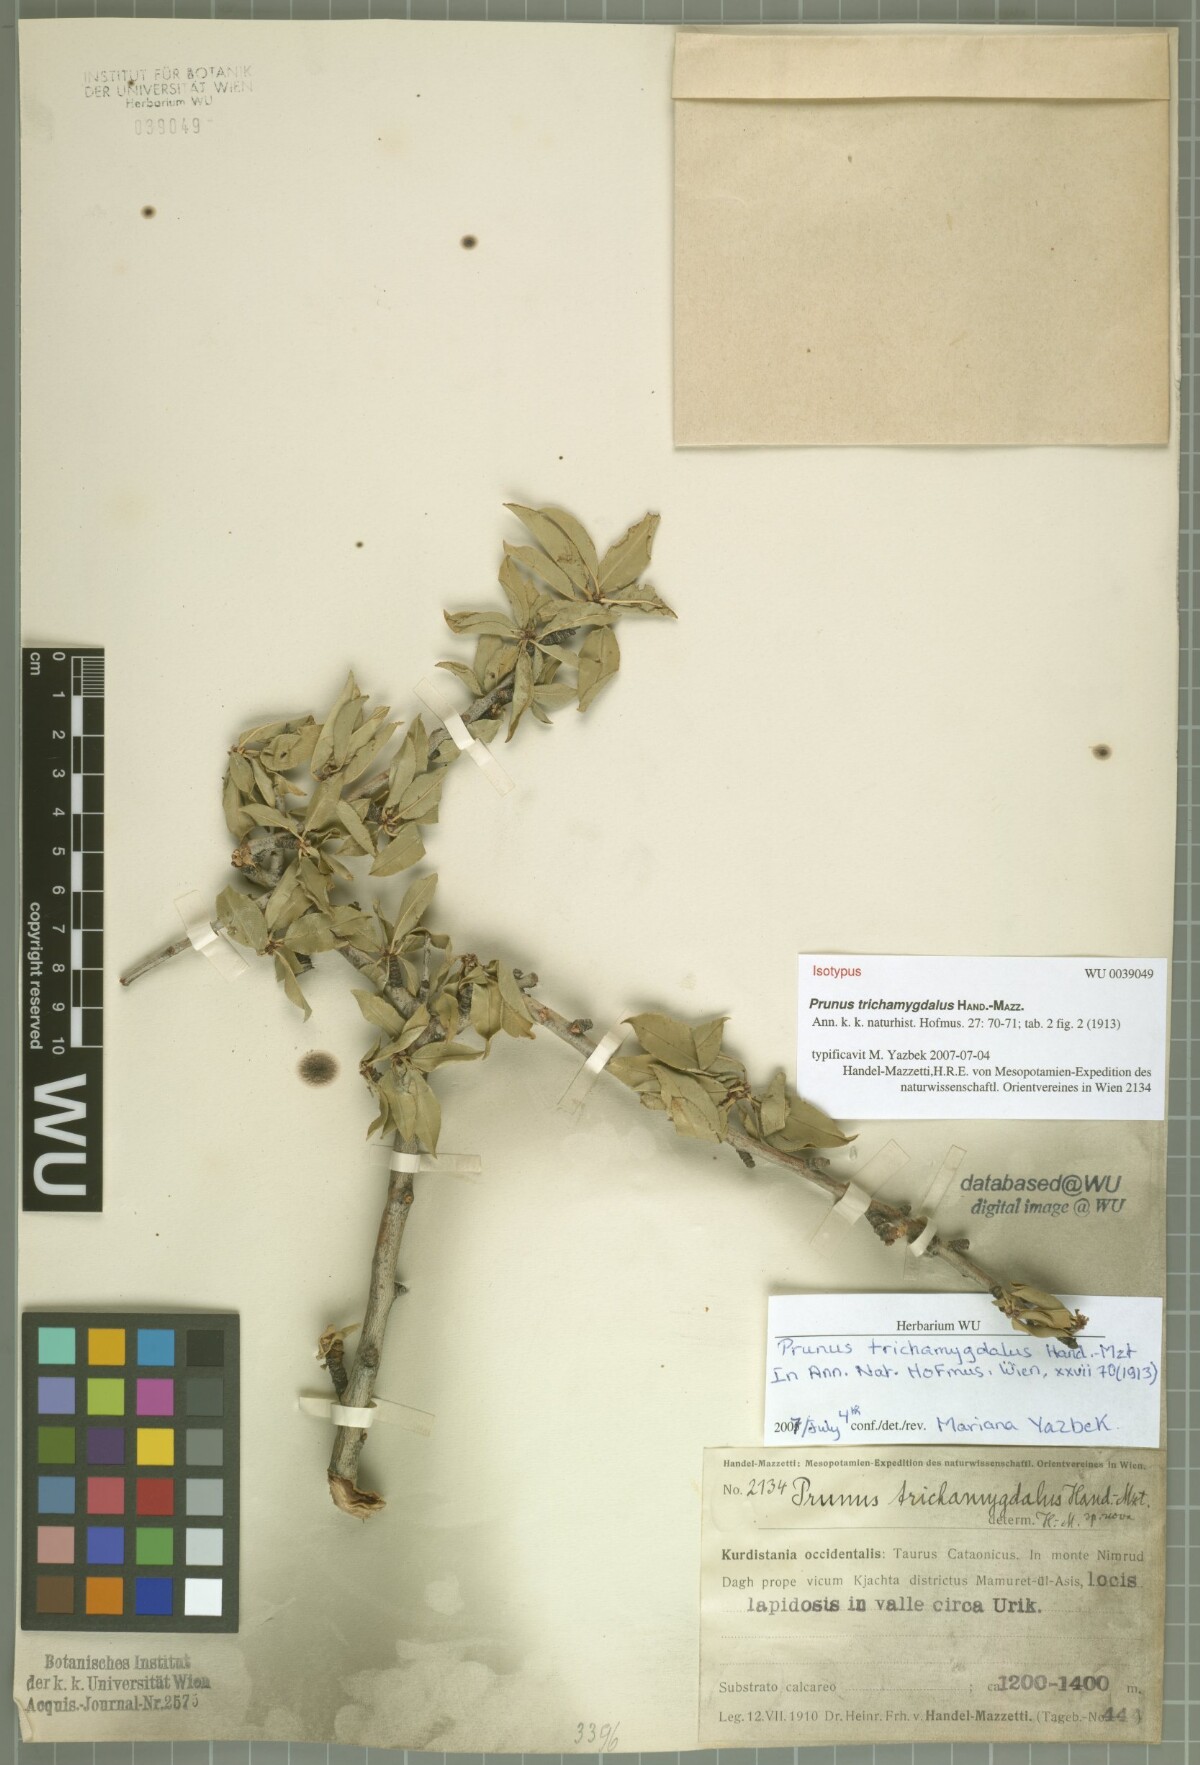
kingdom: Plantae
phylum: Tracheophyta
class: Magnoliopsida
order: Rosales
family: Rosaceae
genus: Prunus
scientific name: Prunus trichamygdalus
